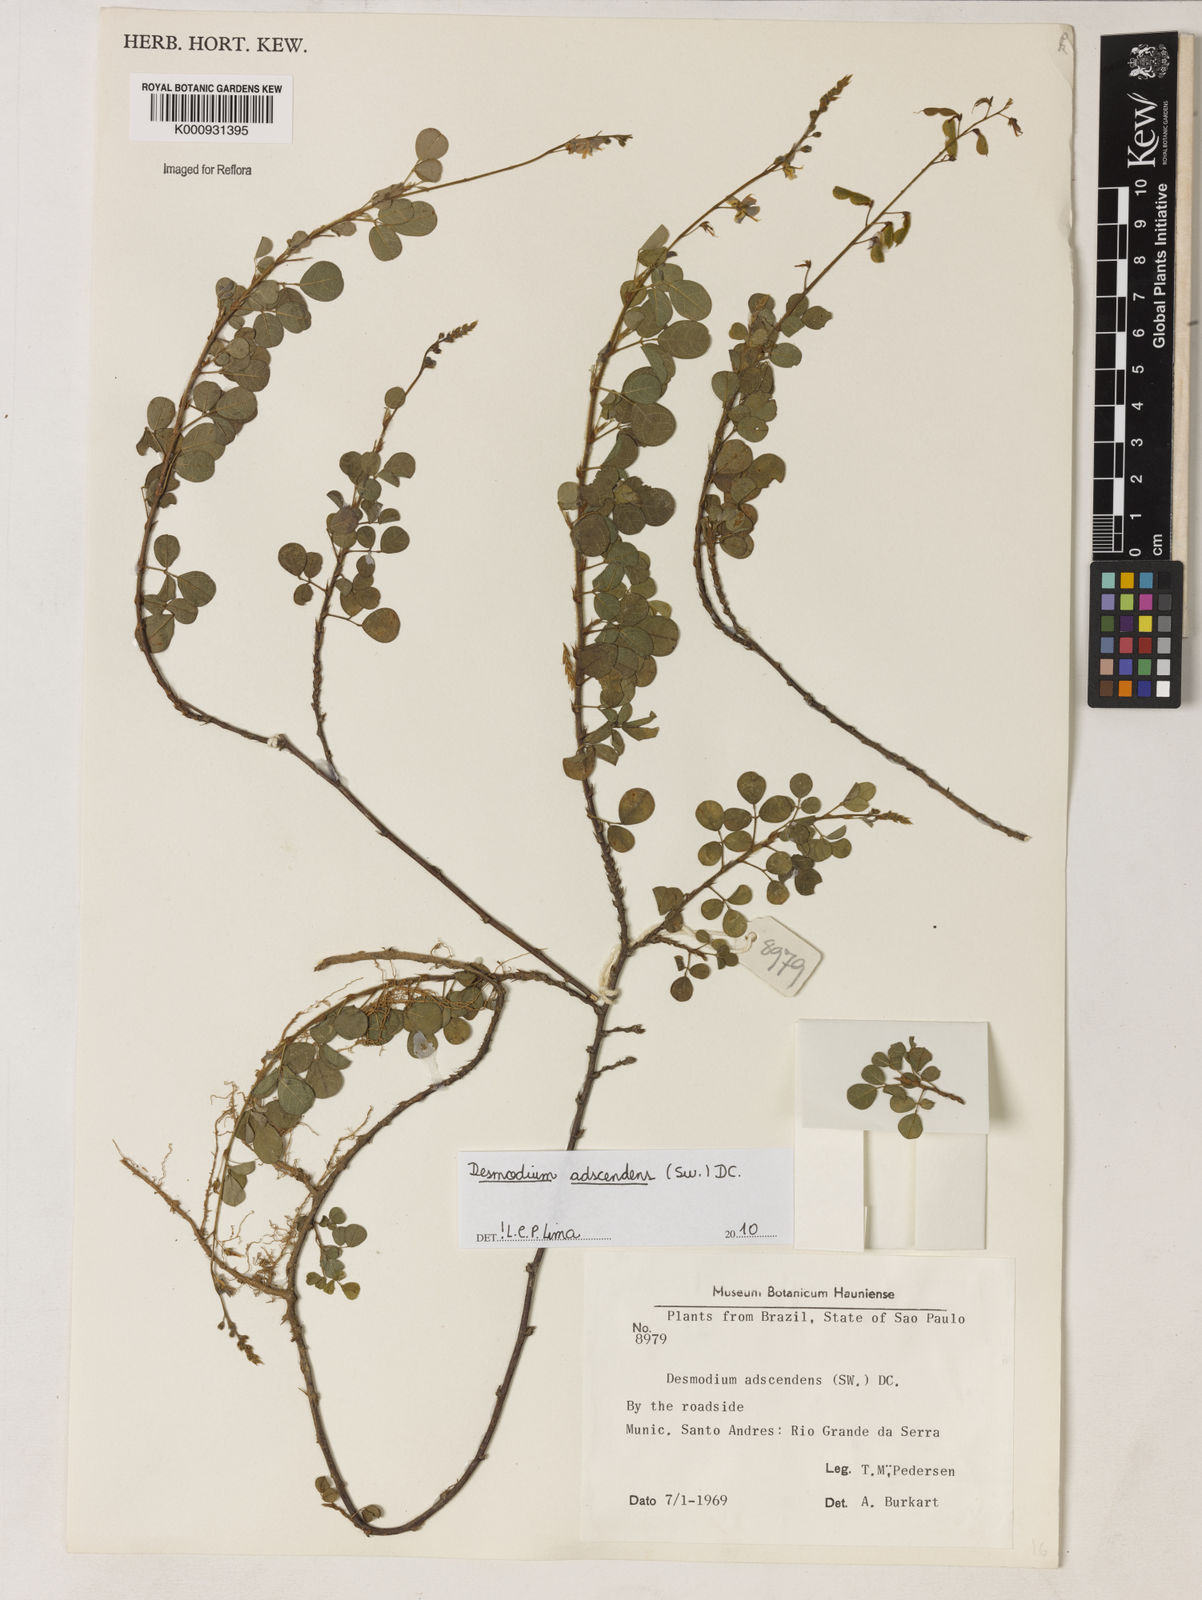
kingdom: Plantae
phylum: Tracheophyta
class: Magnoliopsida
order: Fabales
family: Fabaceae
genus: Grona
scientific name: Grona adscendens
